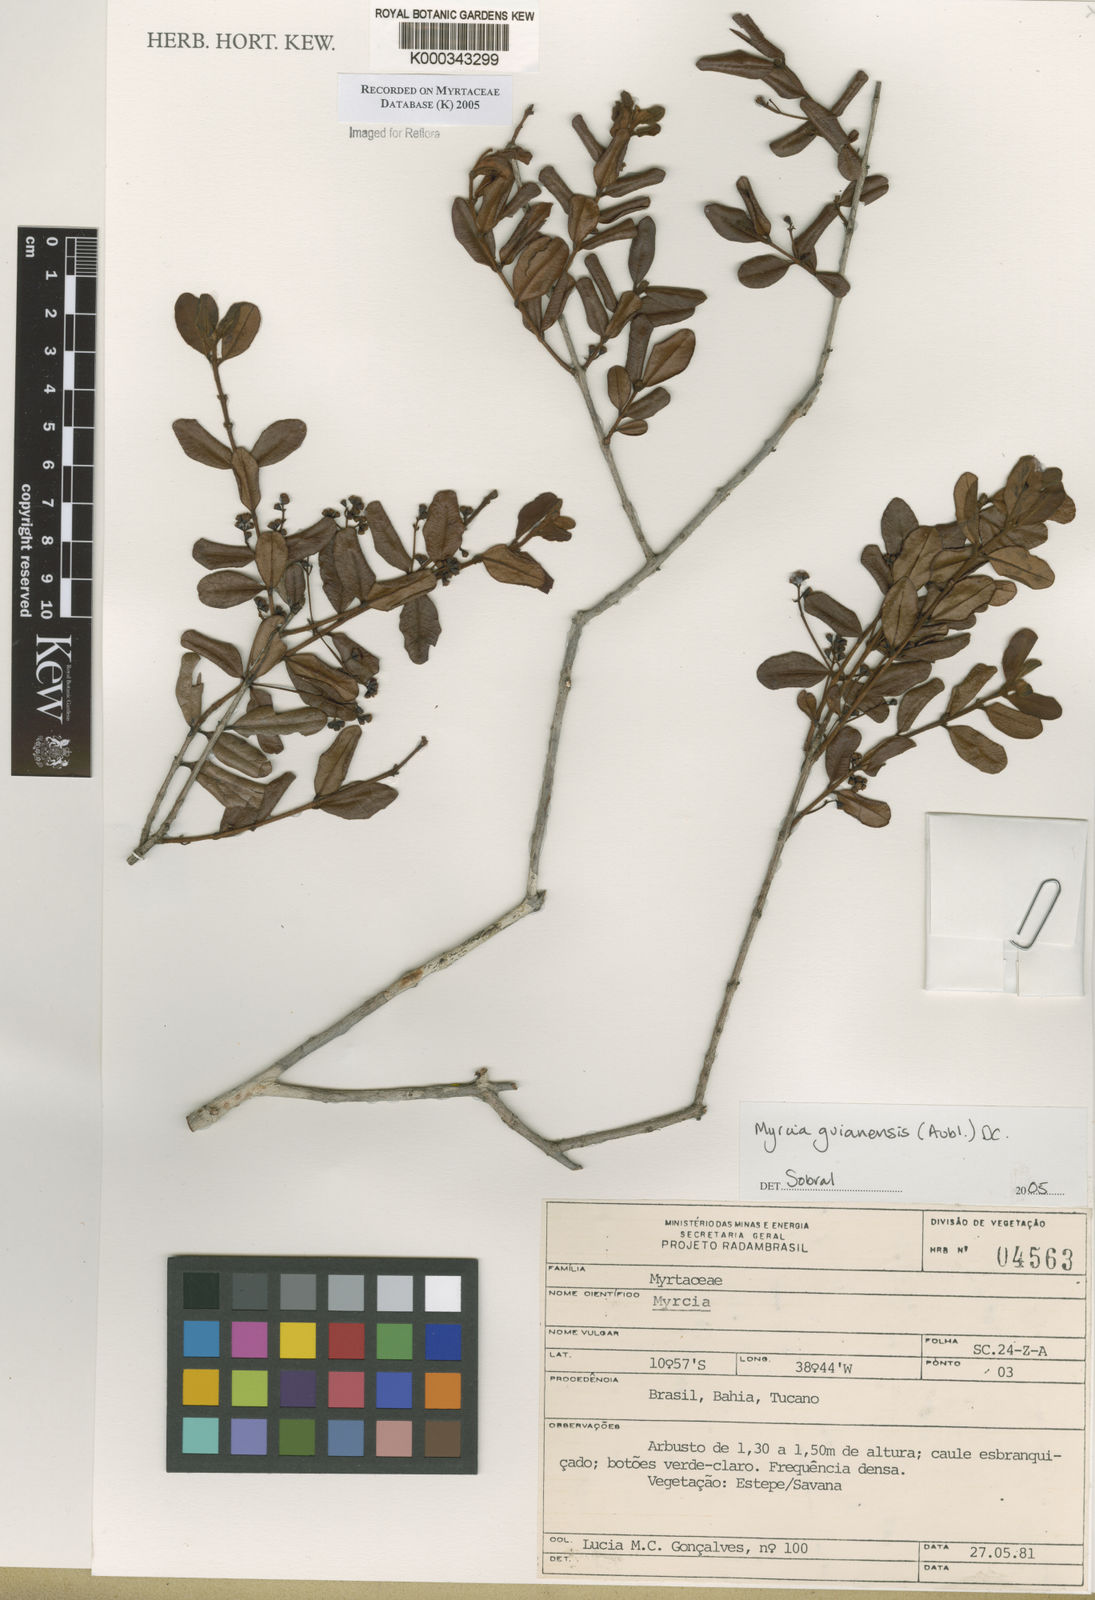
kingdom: Plantae
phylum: Tracheophyta
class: Magnoliopsida
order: Myrtales
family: Myrtaceae
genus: Myrcia
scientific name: Myrcia guianensis
